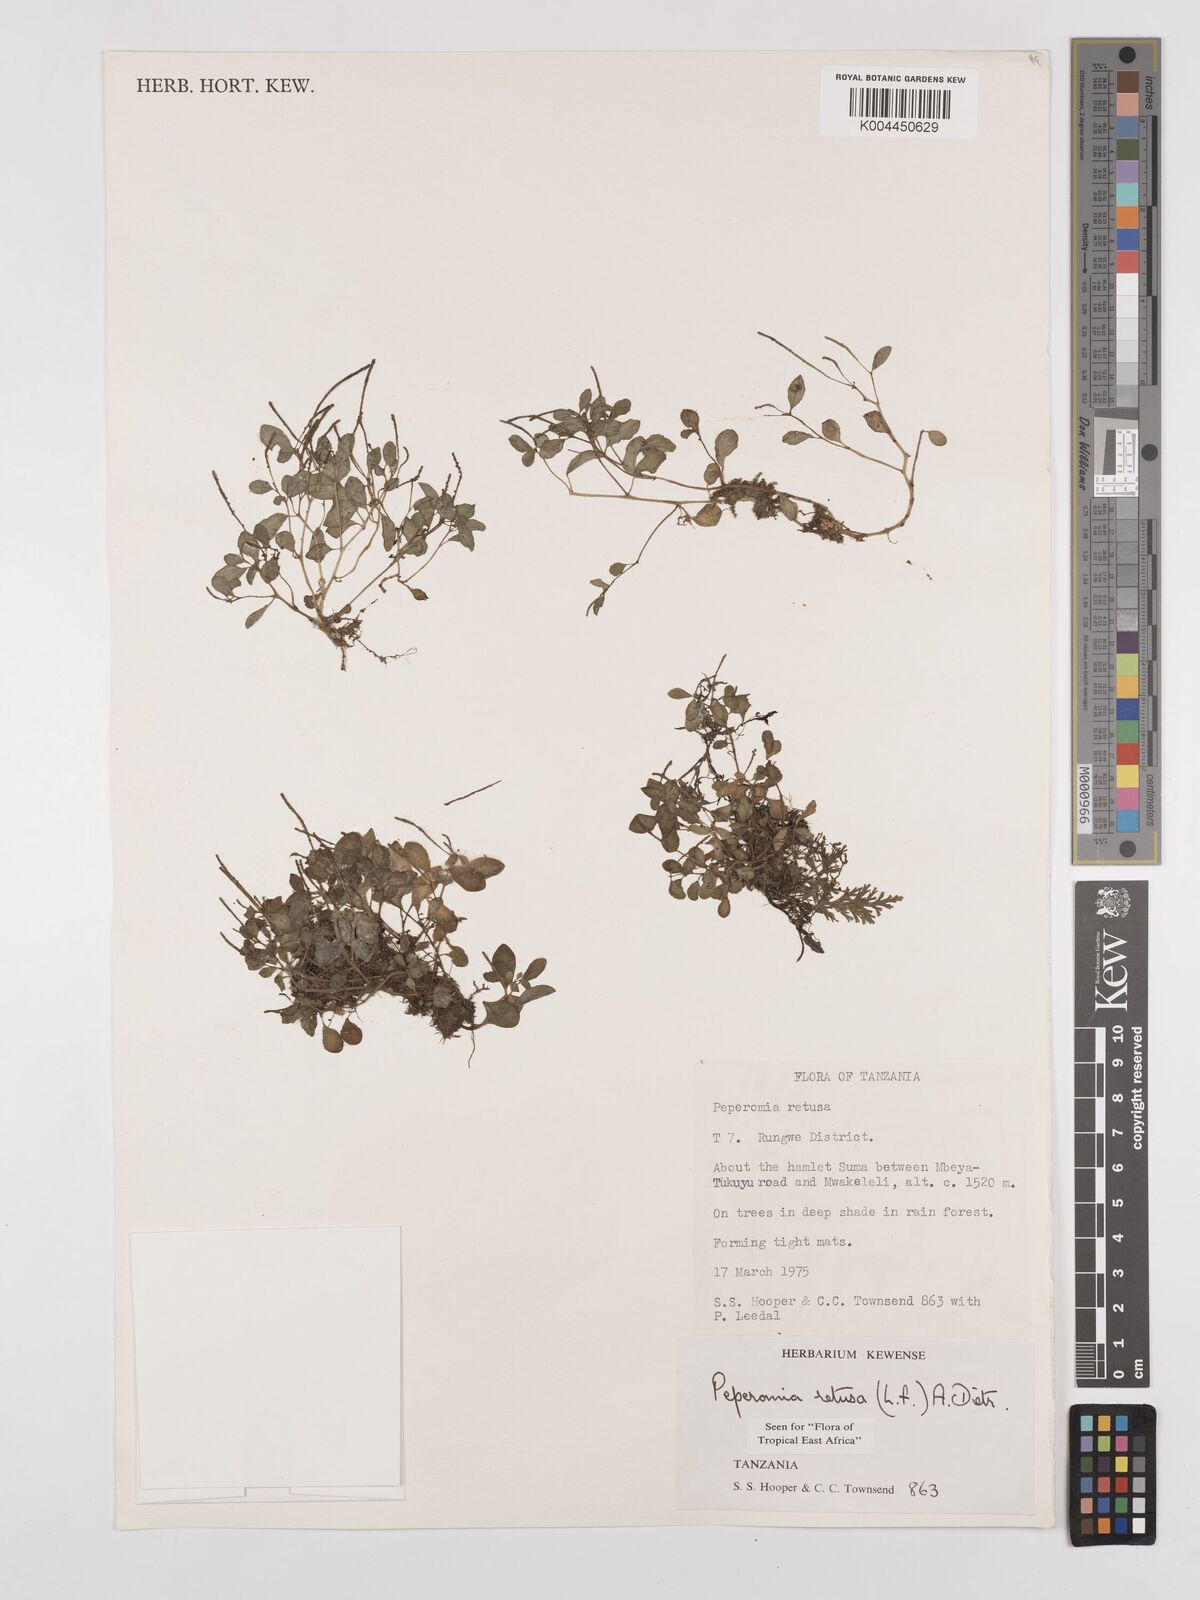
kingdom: Plantae
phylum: Tracheophyta
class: Magnoliopsida
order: Piperales
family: Piperaceae
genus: Peperomia
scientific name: Peperomia retusa
